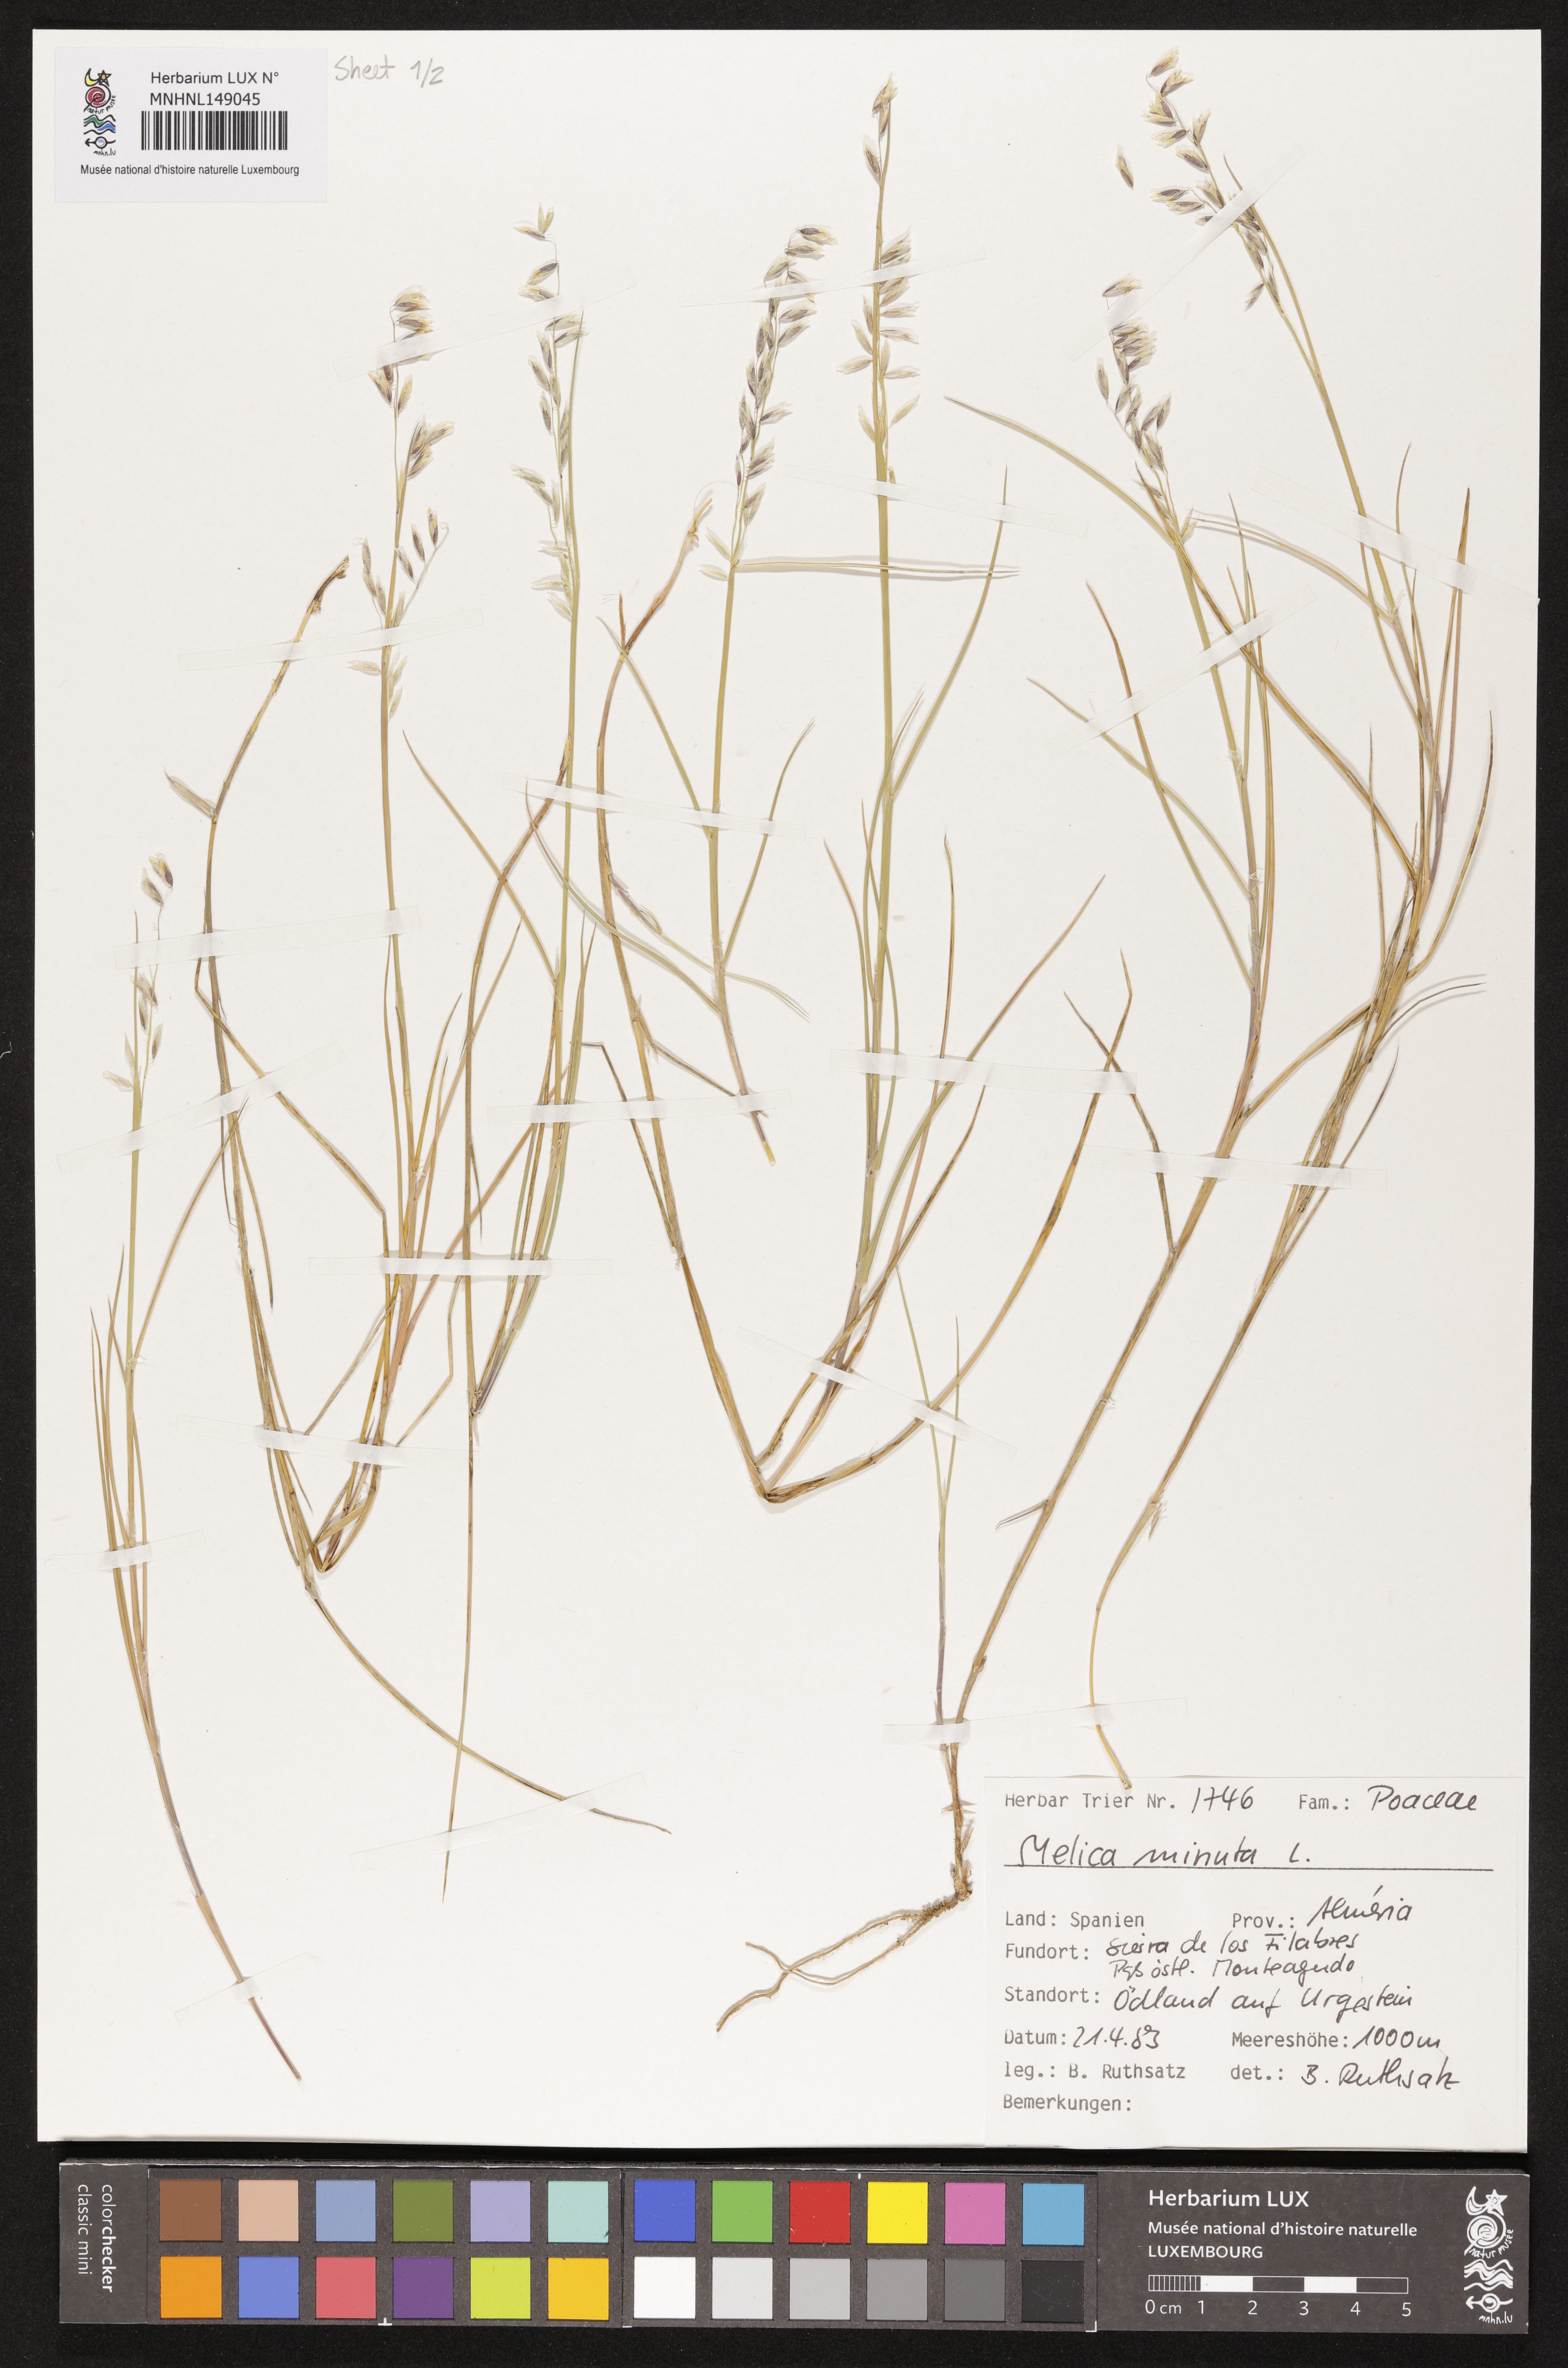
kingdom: Plantae
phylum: Tracheophyta
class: Liliopsida
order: Poales
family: Poaceae
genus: Melica
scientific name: Melica minuta
